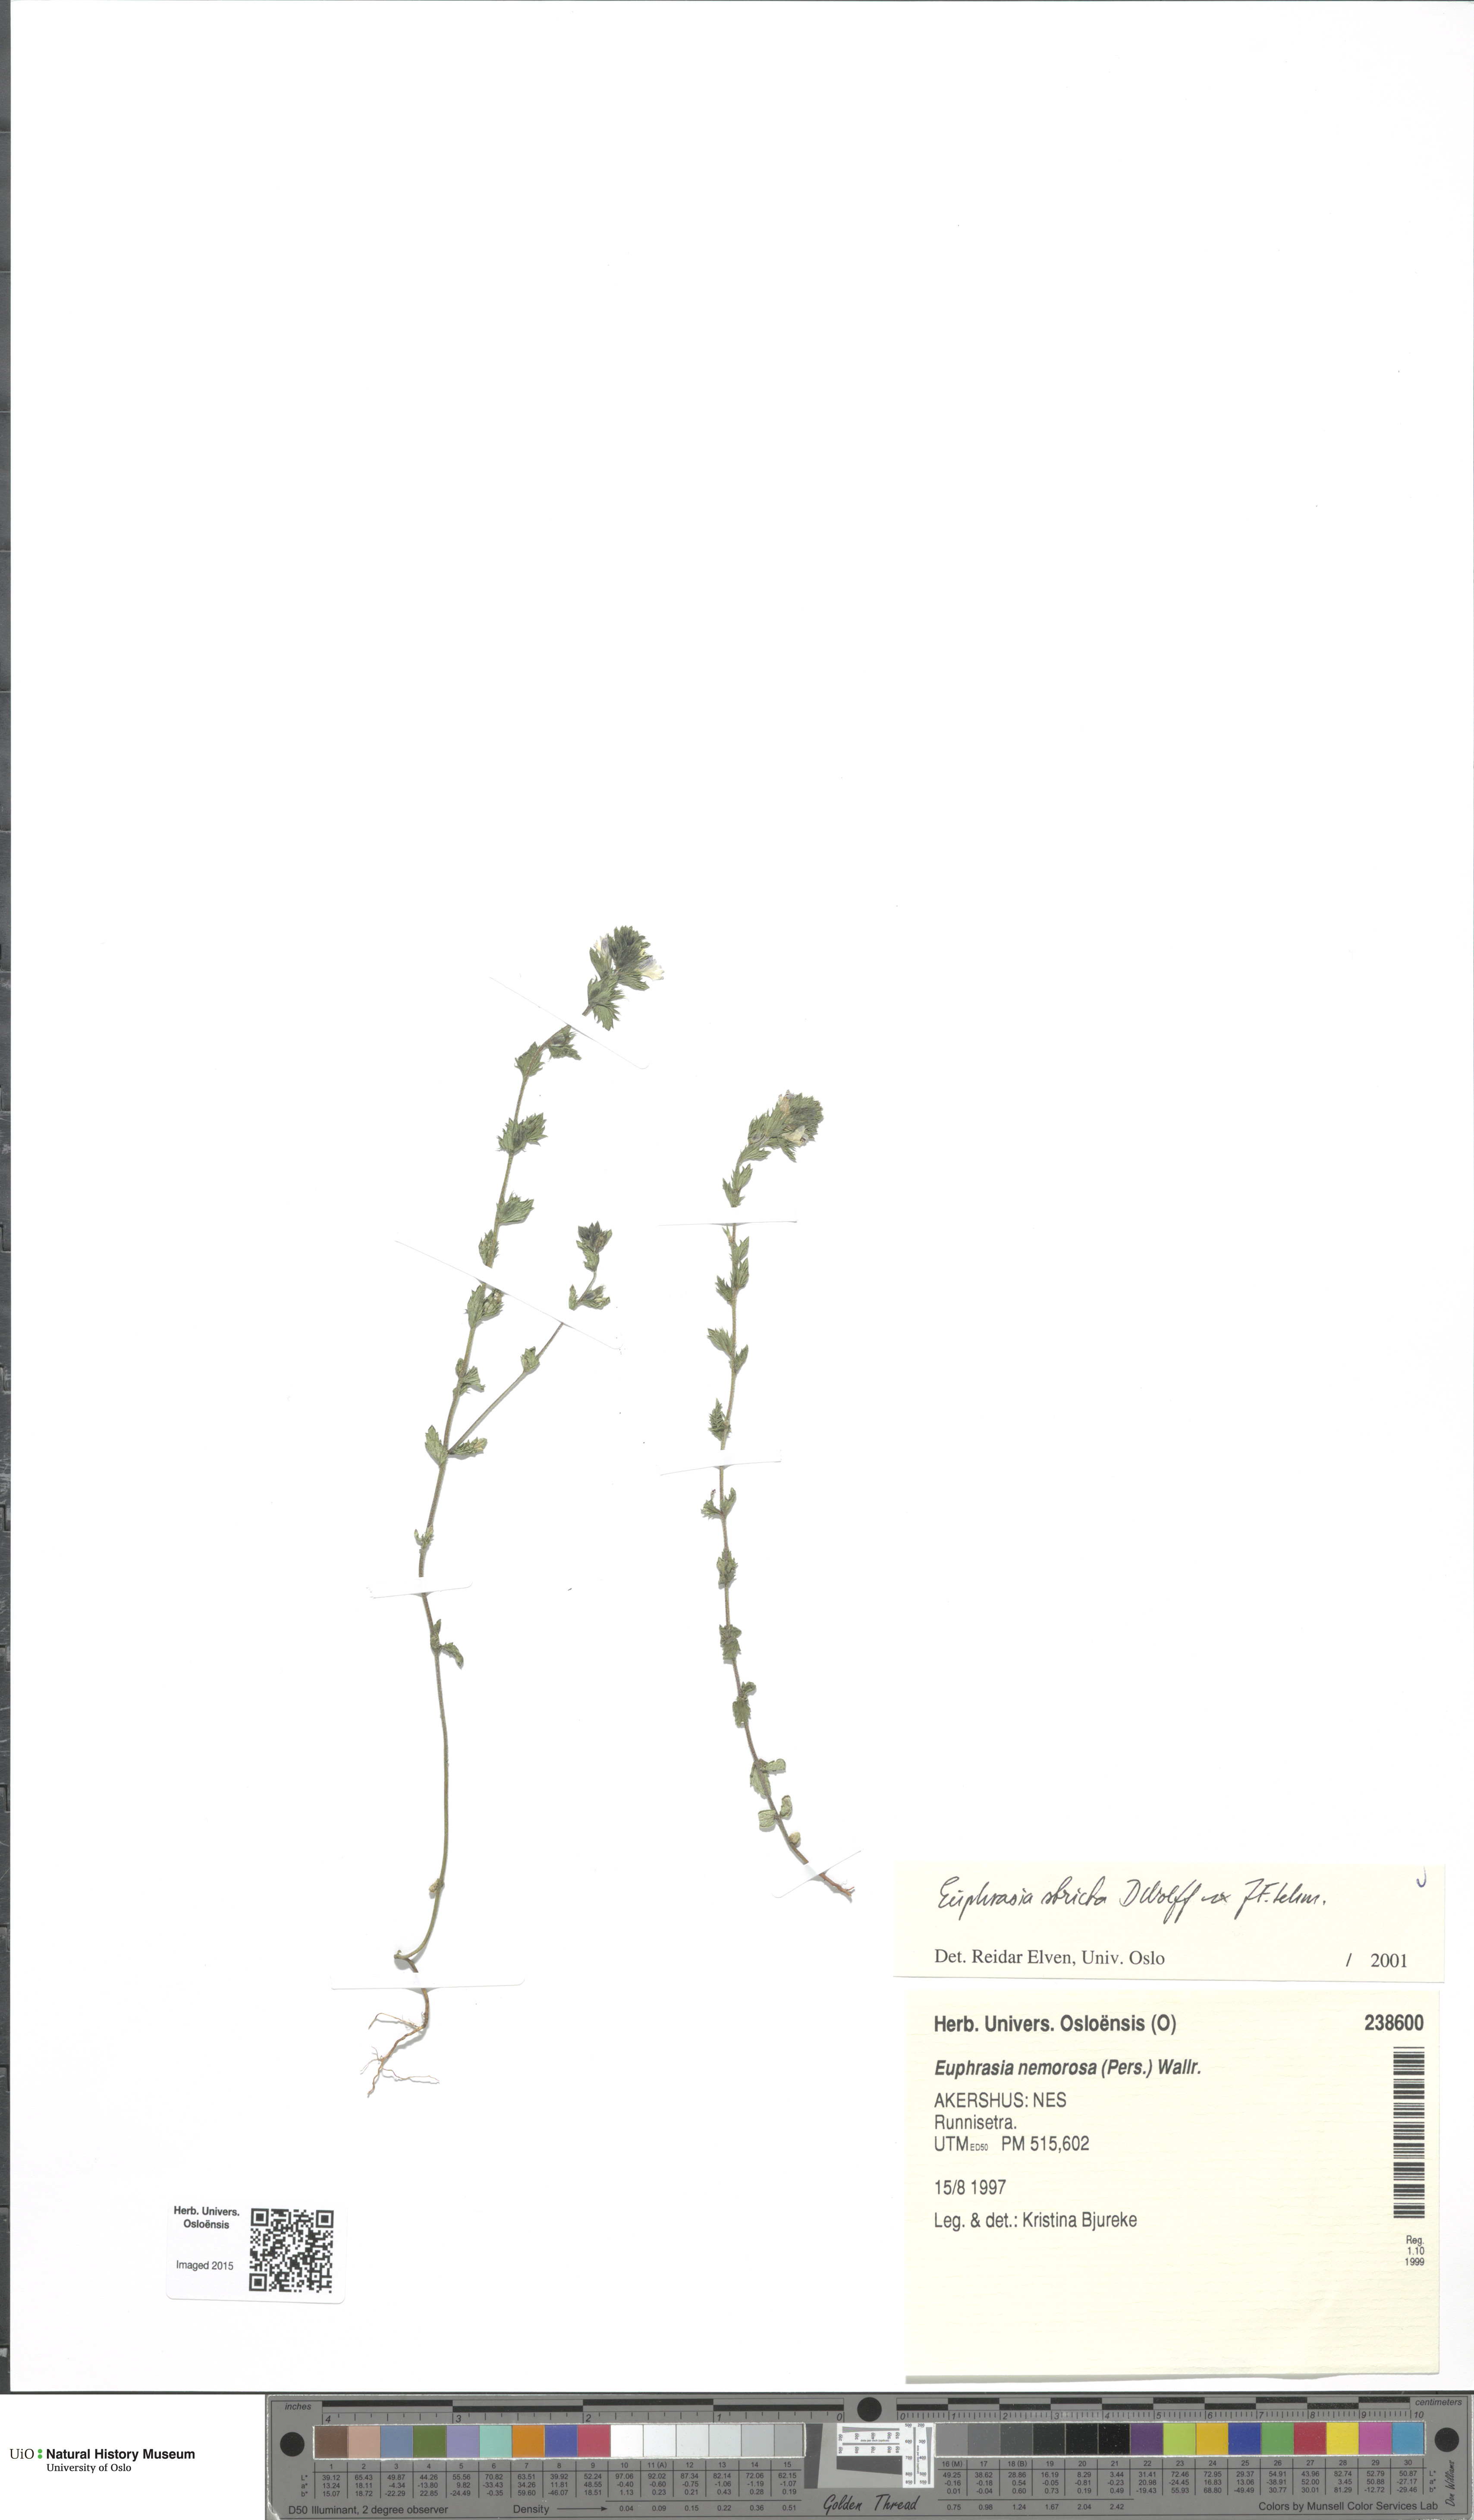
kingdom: Plantae
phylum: Tracheophyta
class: Magnoliopsida
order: Lamiales
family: Orobanchaceae
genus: Euphrasia
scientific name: Euphrasia stricta
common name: Drug eyebright
